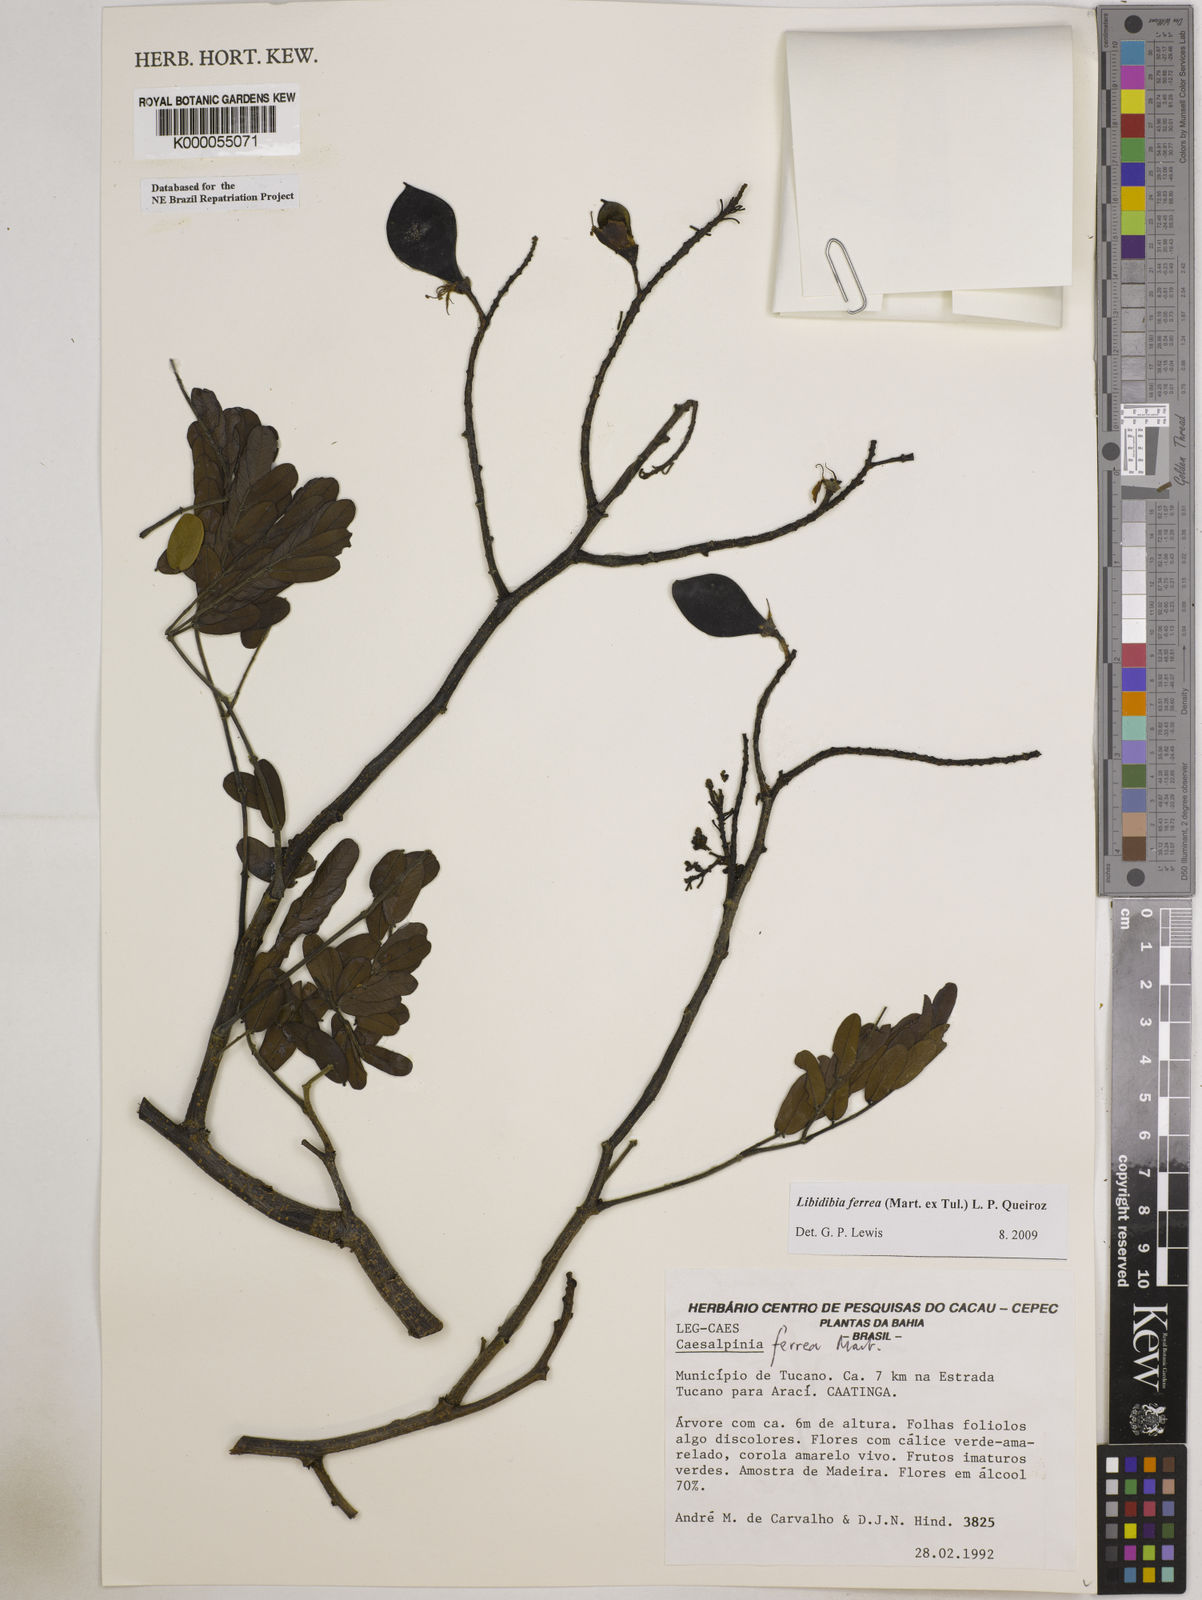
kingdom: Plantae
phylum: Tracheophyta
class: Magnoliopsida
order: Fabales
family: Fabaceae
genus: Libidibia
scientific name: Libidibia ferrea
